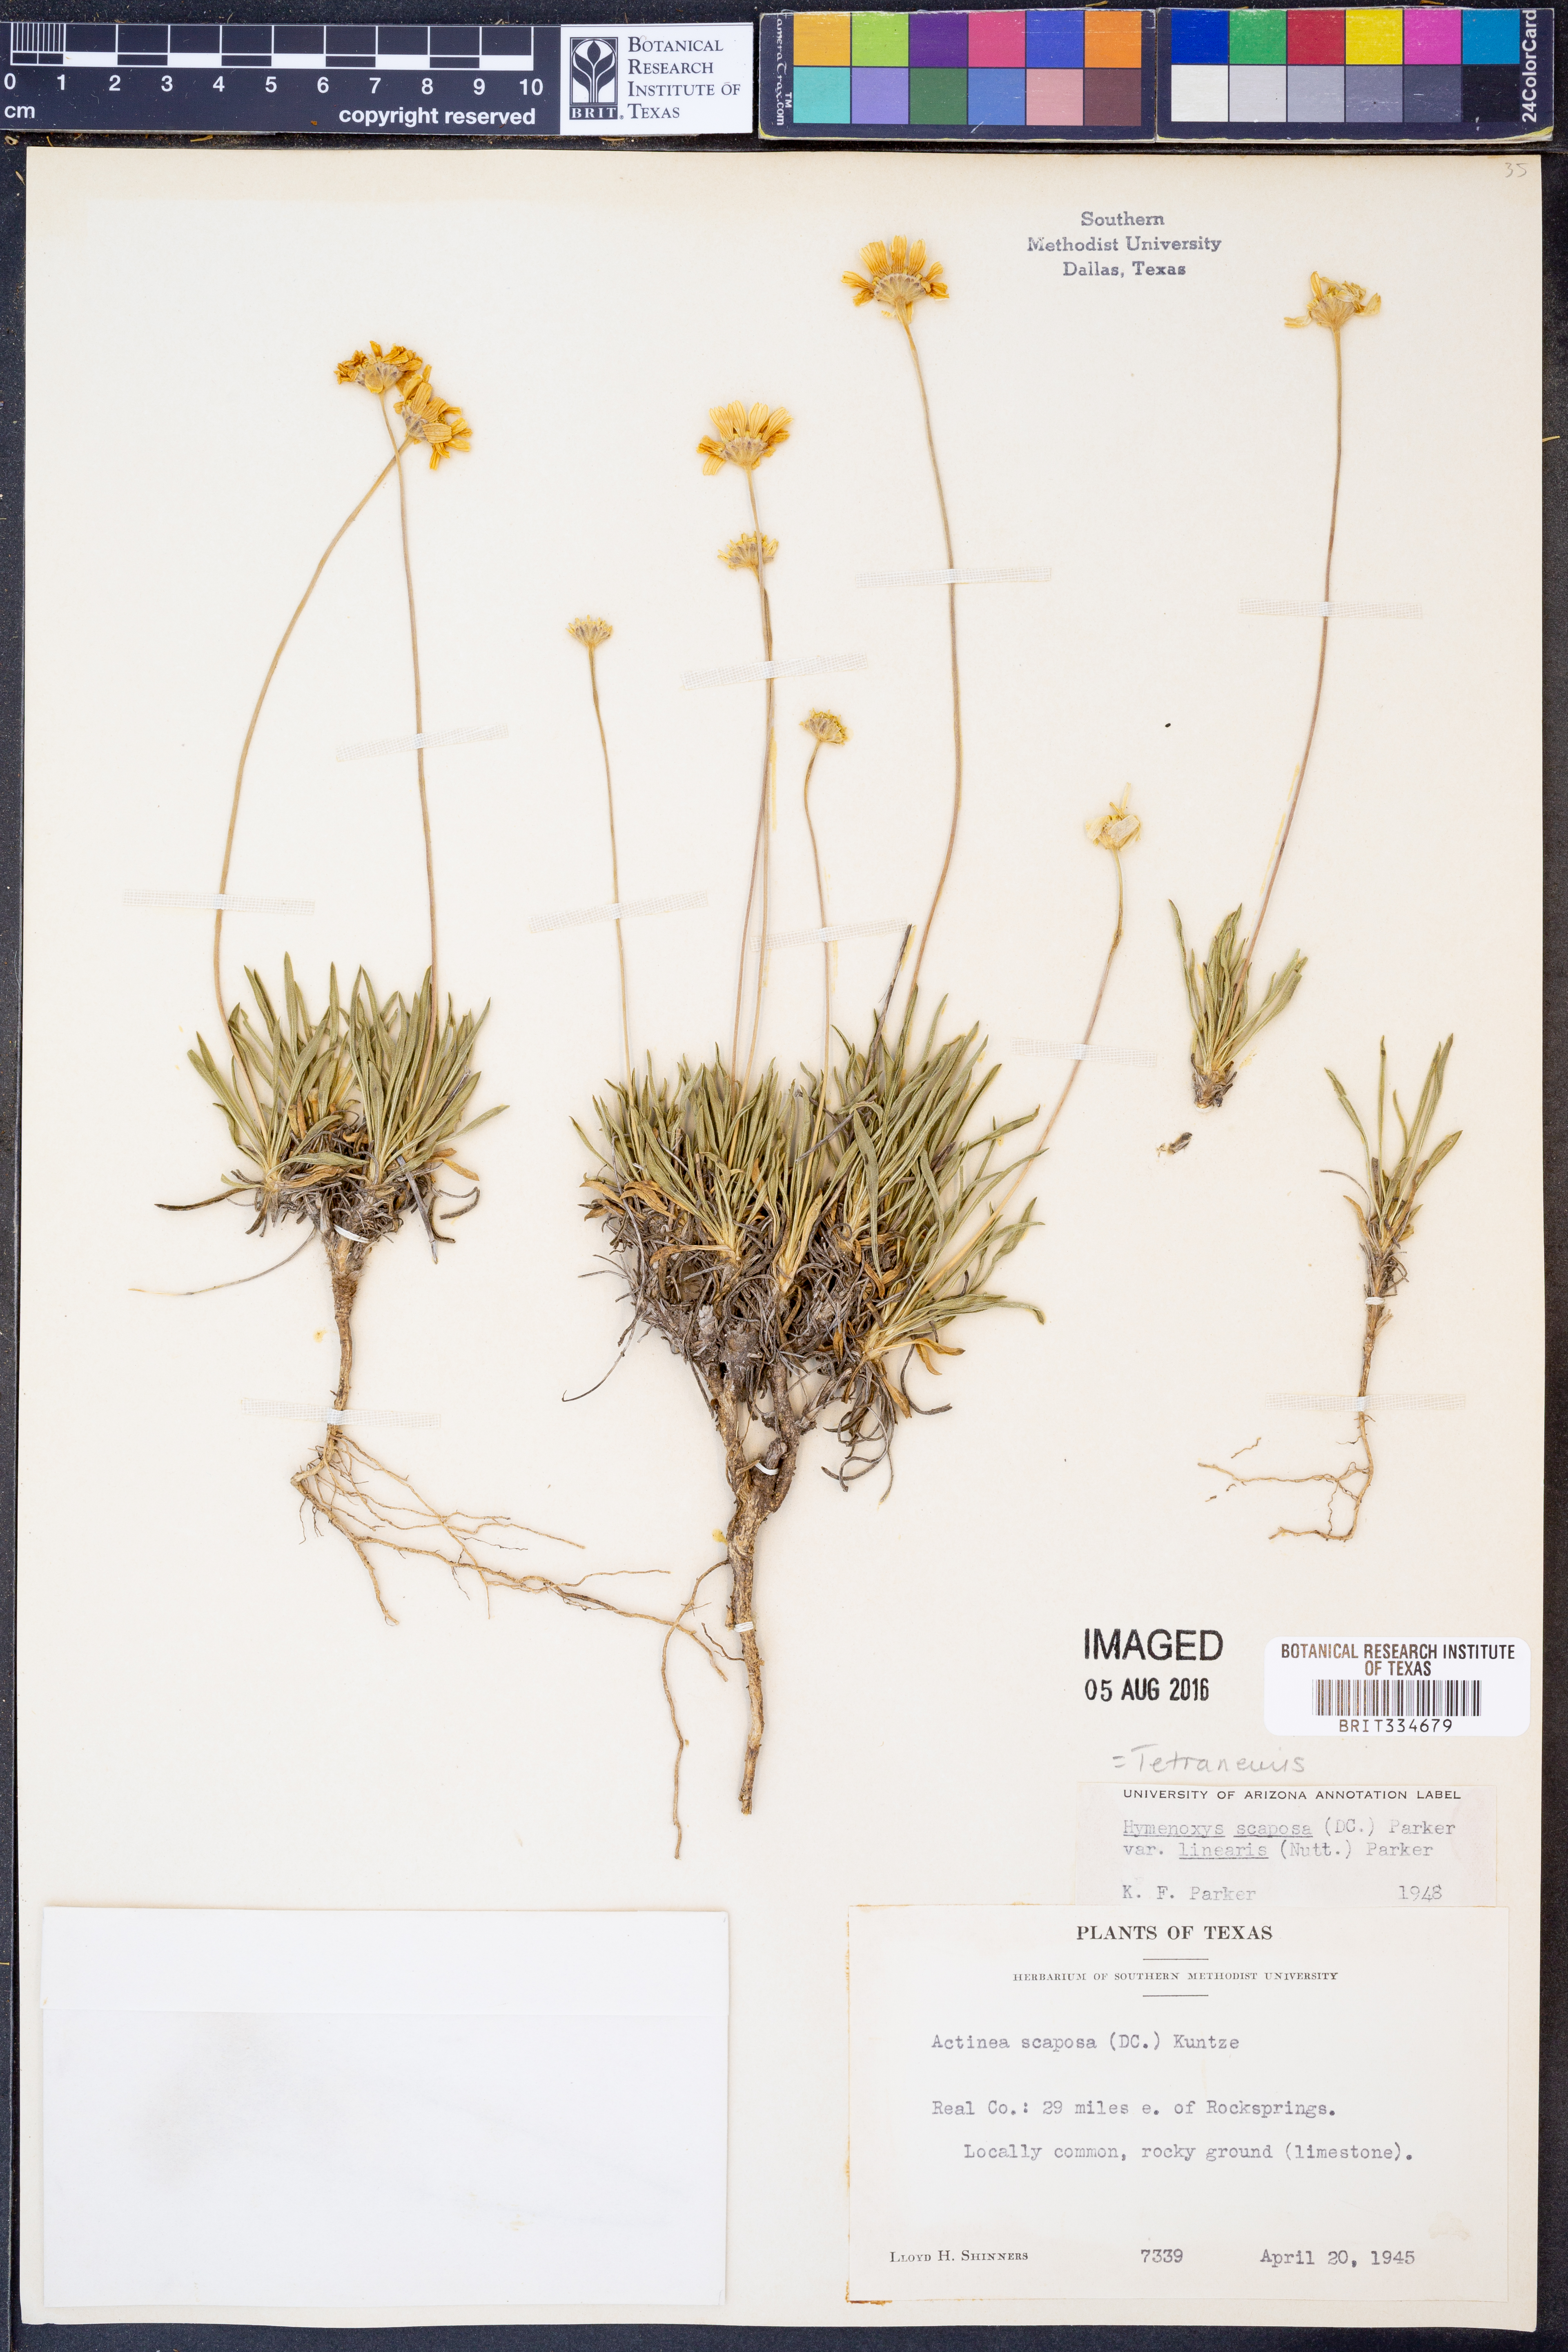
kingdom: Plantae
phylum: Tracheophyta
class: Magnoliopsida
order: Asterales
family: Asteraceae
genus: Tetraneuris
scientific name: Tetraneuris scaposa
